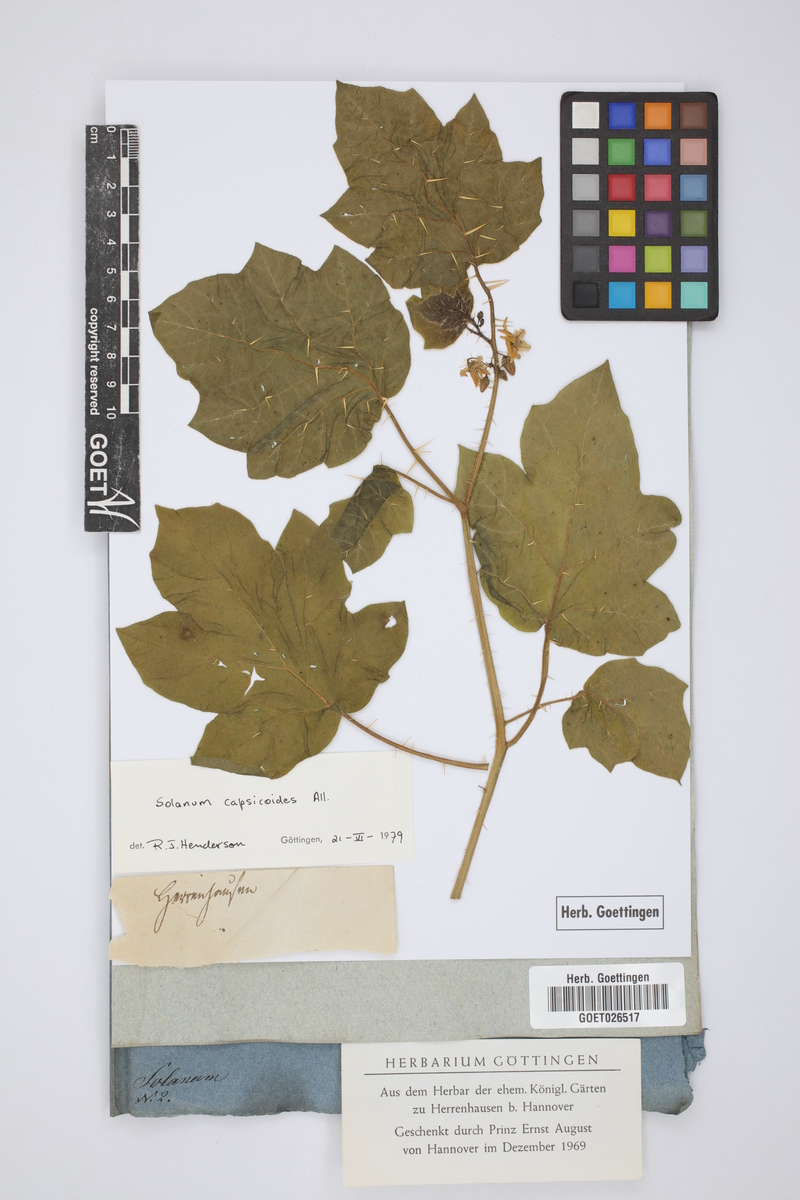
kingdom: Plantae
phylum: Tracheophyta
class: Magnoliopsida
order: Solanales
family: Solanaceae
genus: Solanum
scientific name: Solanum capsicoides
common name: Cockroach berry
